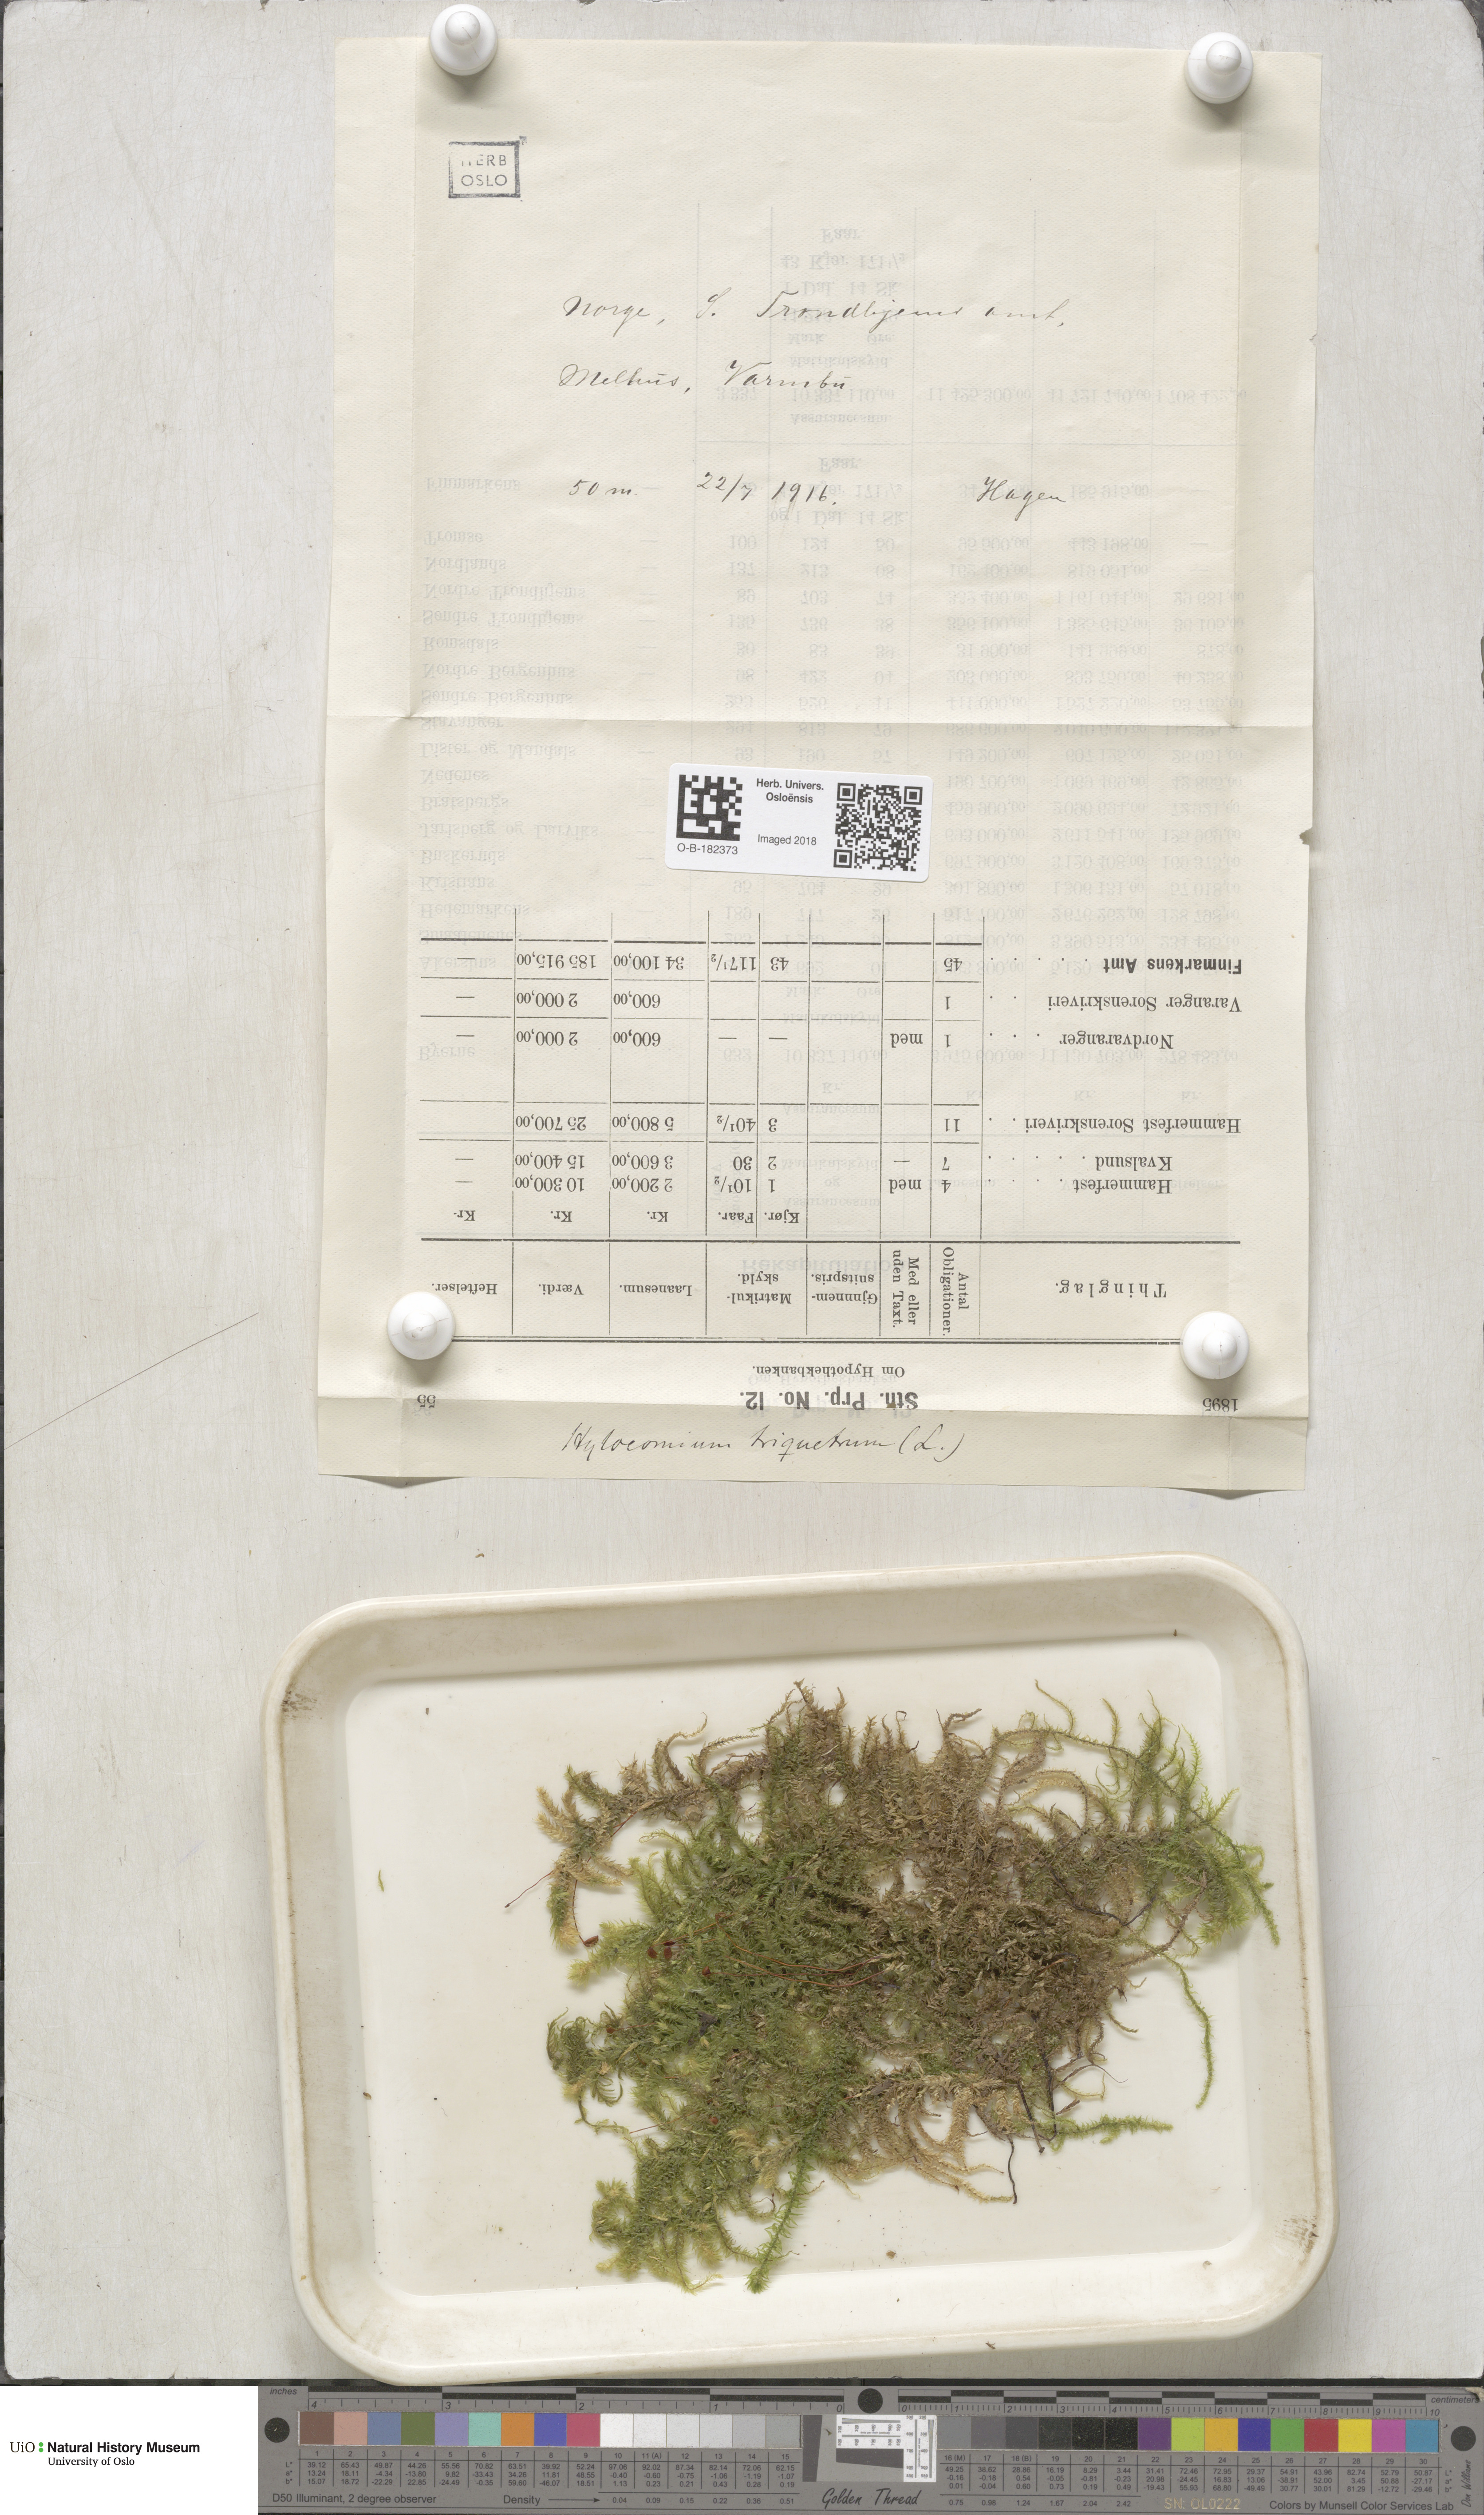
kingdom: Plantae
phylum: Bryophyta
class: Bryopsida
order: Hypnales
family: Hylocomiaceae
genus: Hylocomiadelphus
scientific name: Hylocomiadelphus triquetrus
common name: Rough goose neck moss
